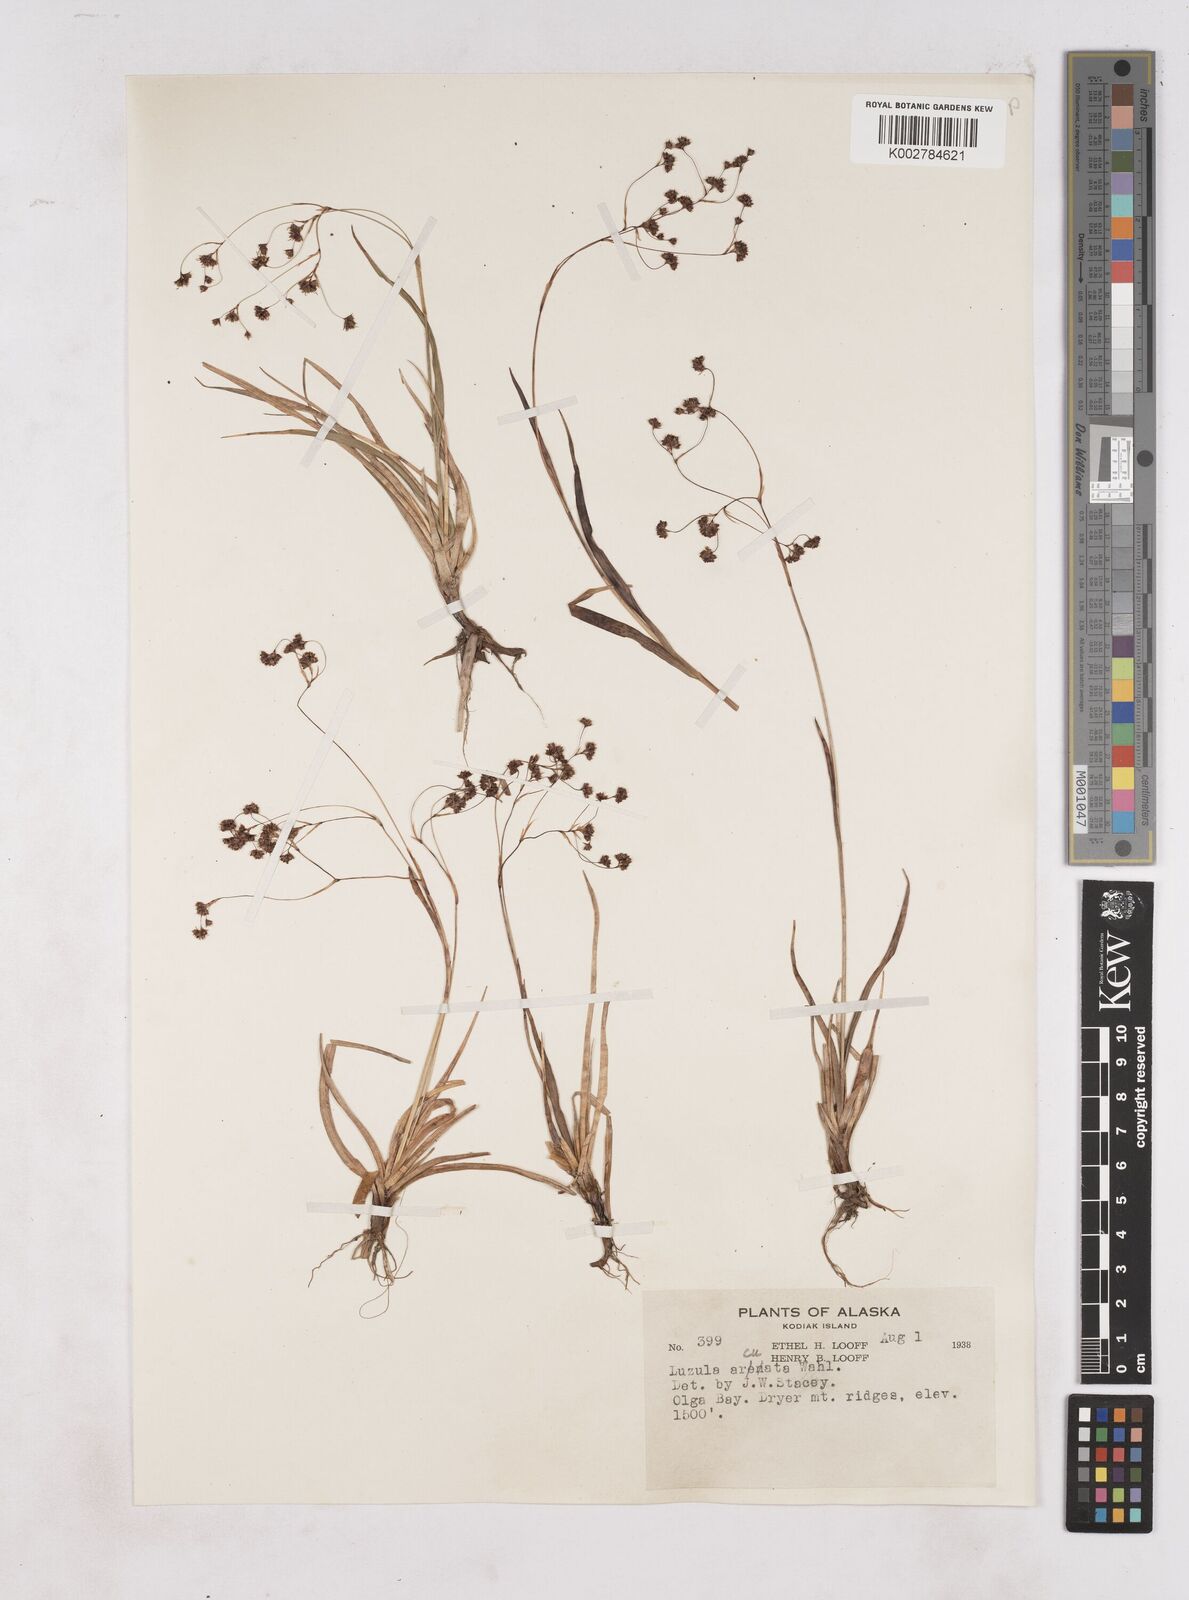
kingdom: Plantae
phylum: Tracheophyta
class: Liliopsida
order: Poales
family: Juncaceae
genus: Luzula
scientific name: Luzula arcuata
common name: Curved wood-rush
